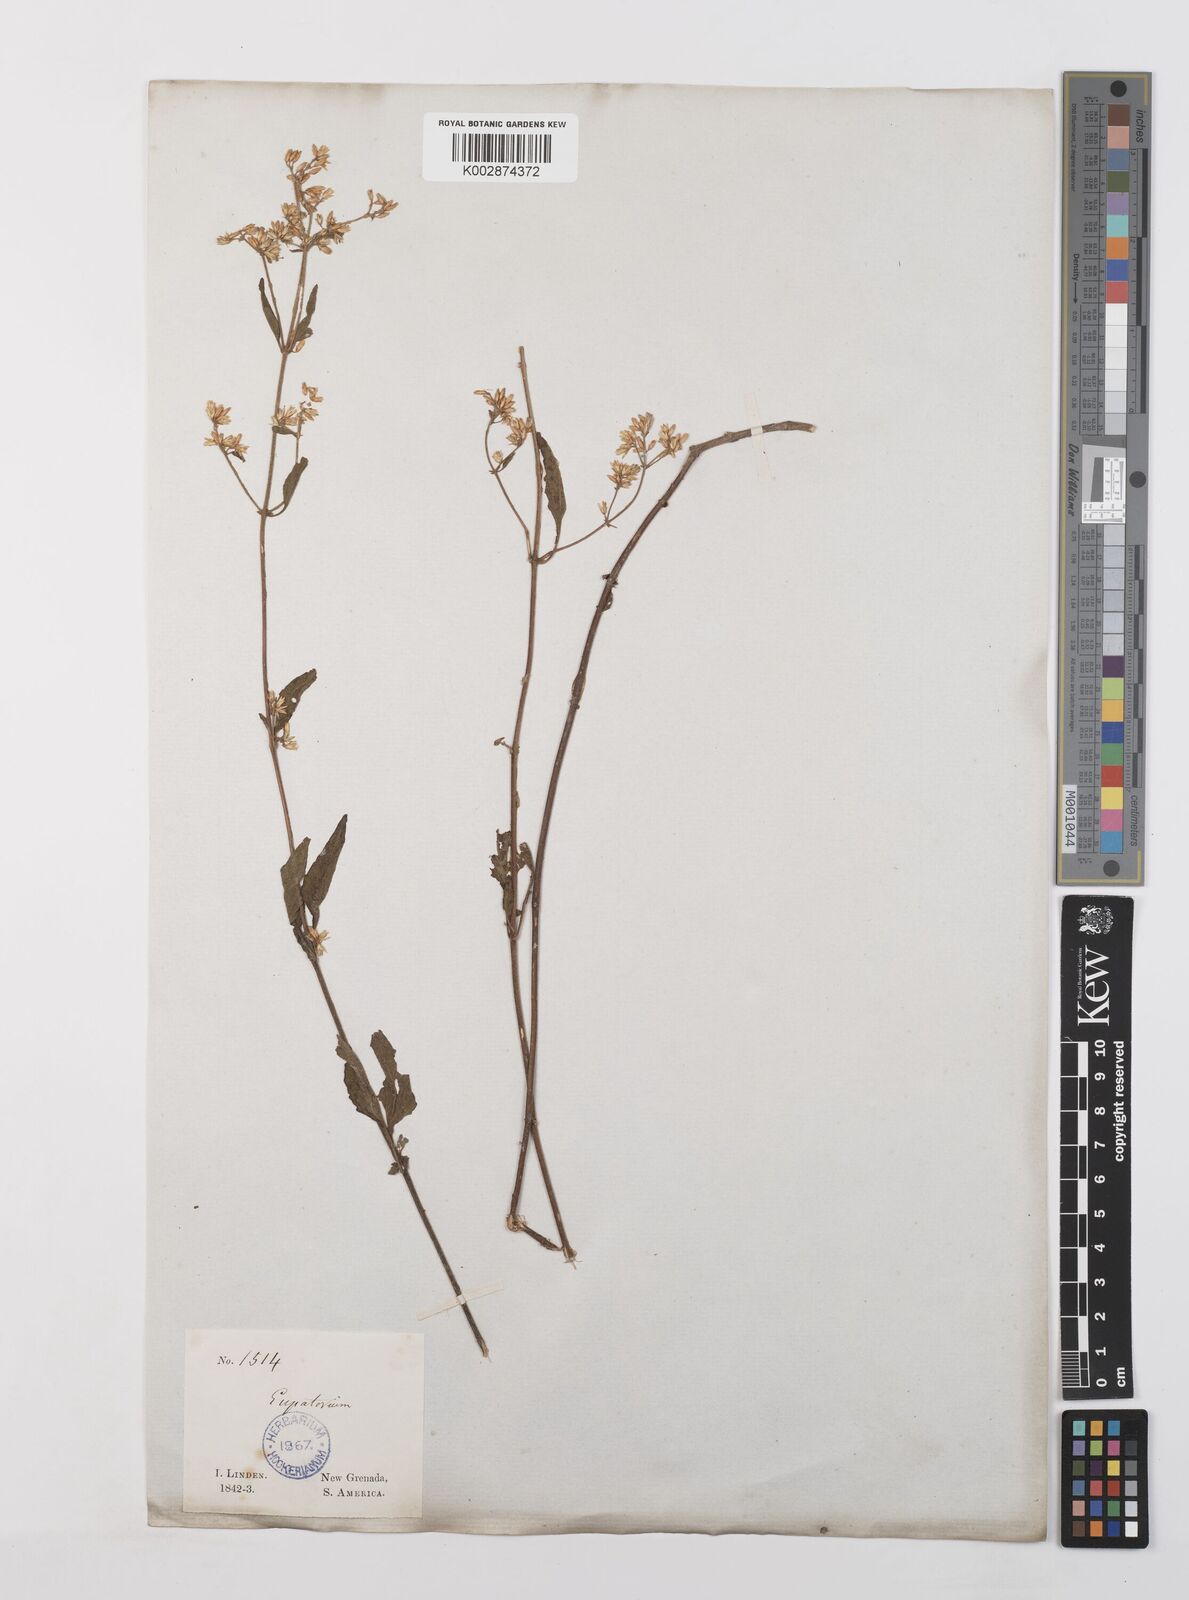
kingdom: Plantae
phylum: Tracheophyta
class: Magnoliopsida
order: Asterales
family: Asteraceae
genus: Condylidium
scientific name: Condylidium iresinoides
